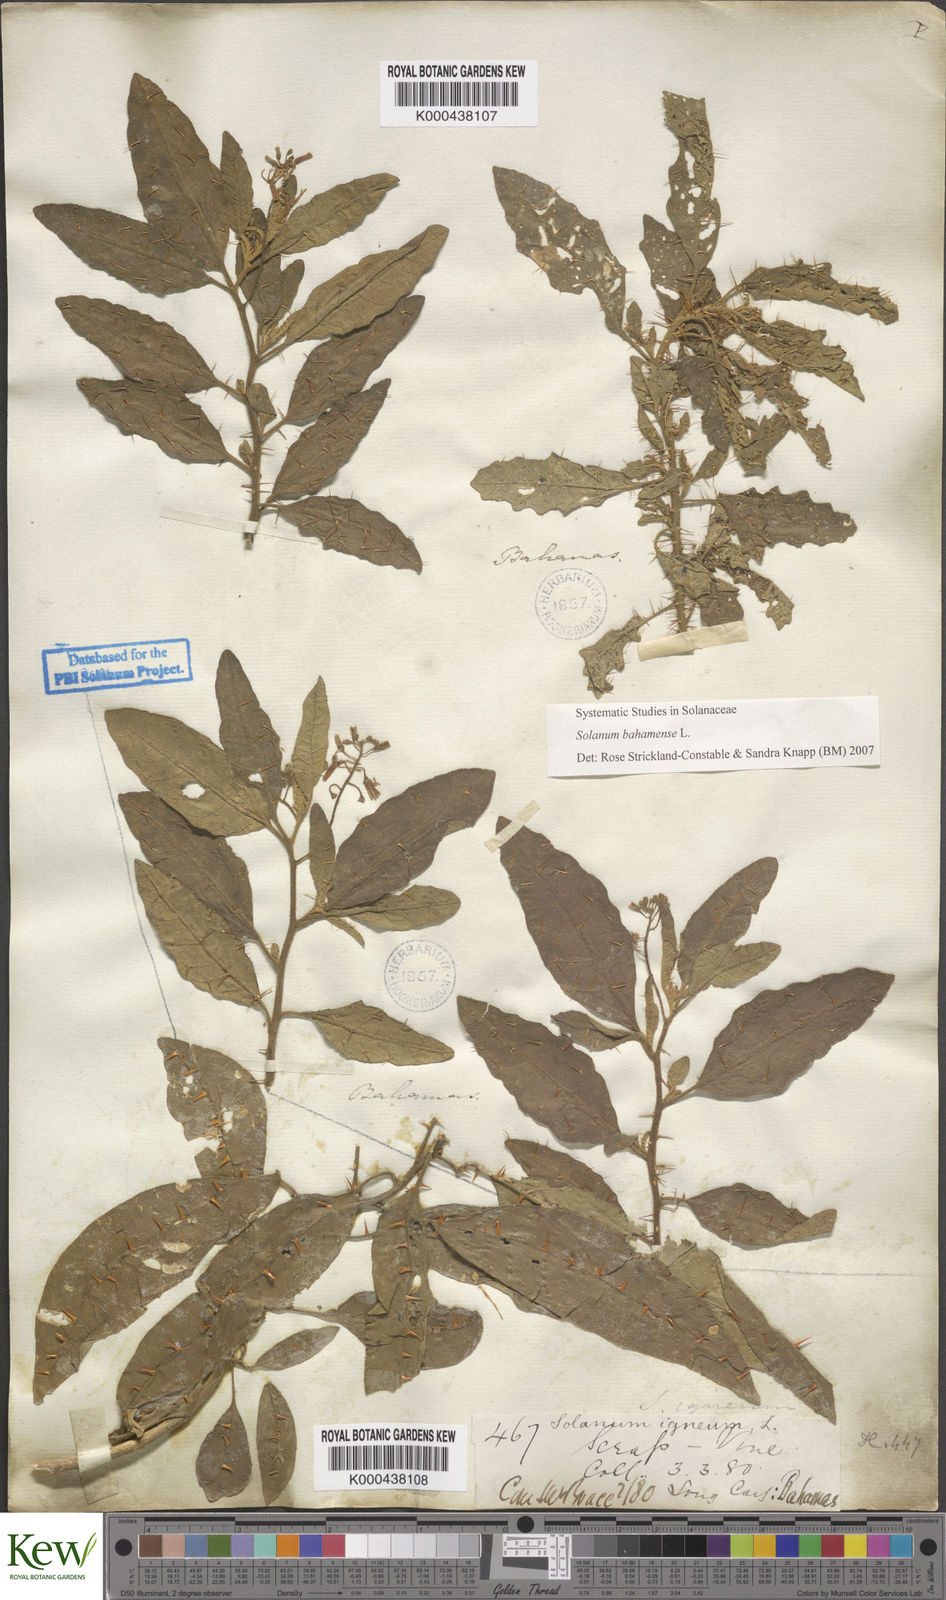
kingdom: Plantae
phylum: Tracheophyta
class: Magnoliopsida
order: Solanales
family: Solanaceae
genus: Solanum
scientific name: Solanum bahamense
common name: Canker-berry
